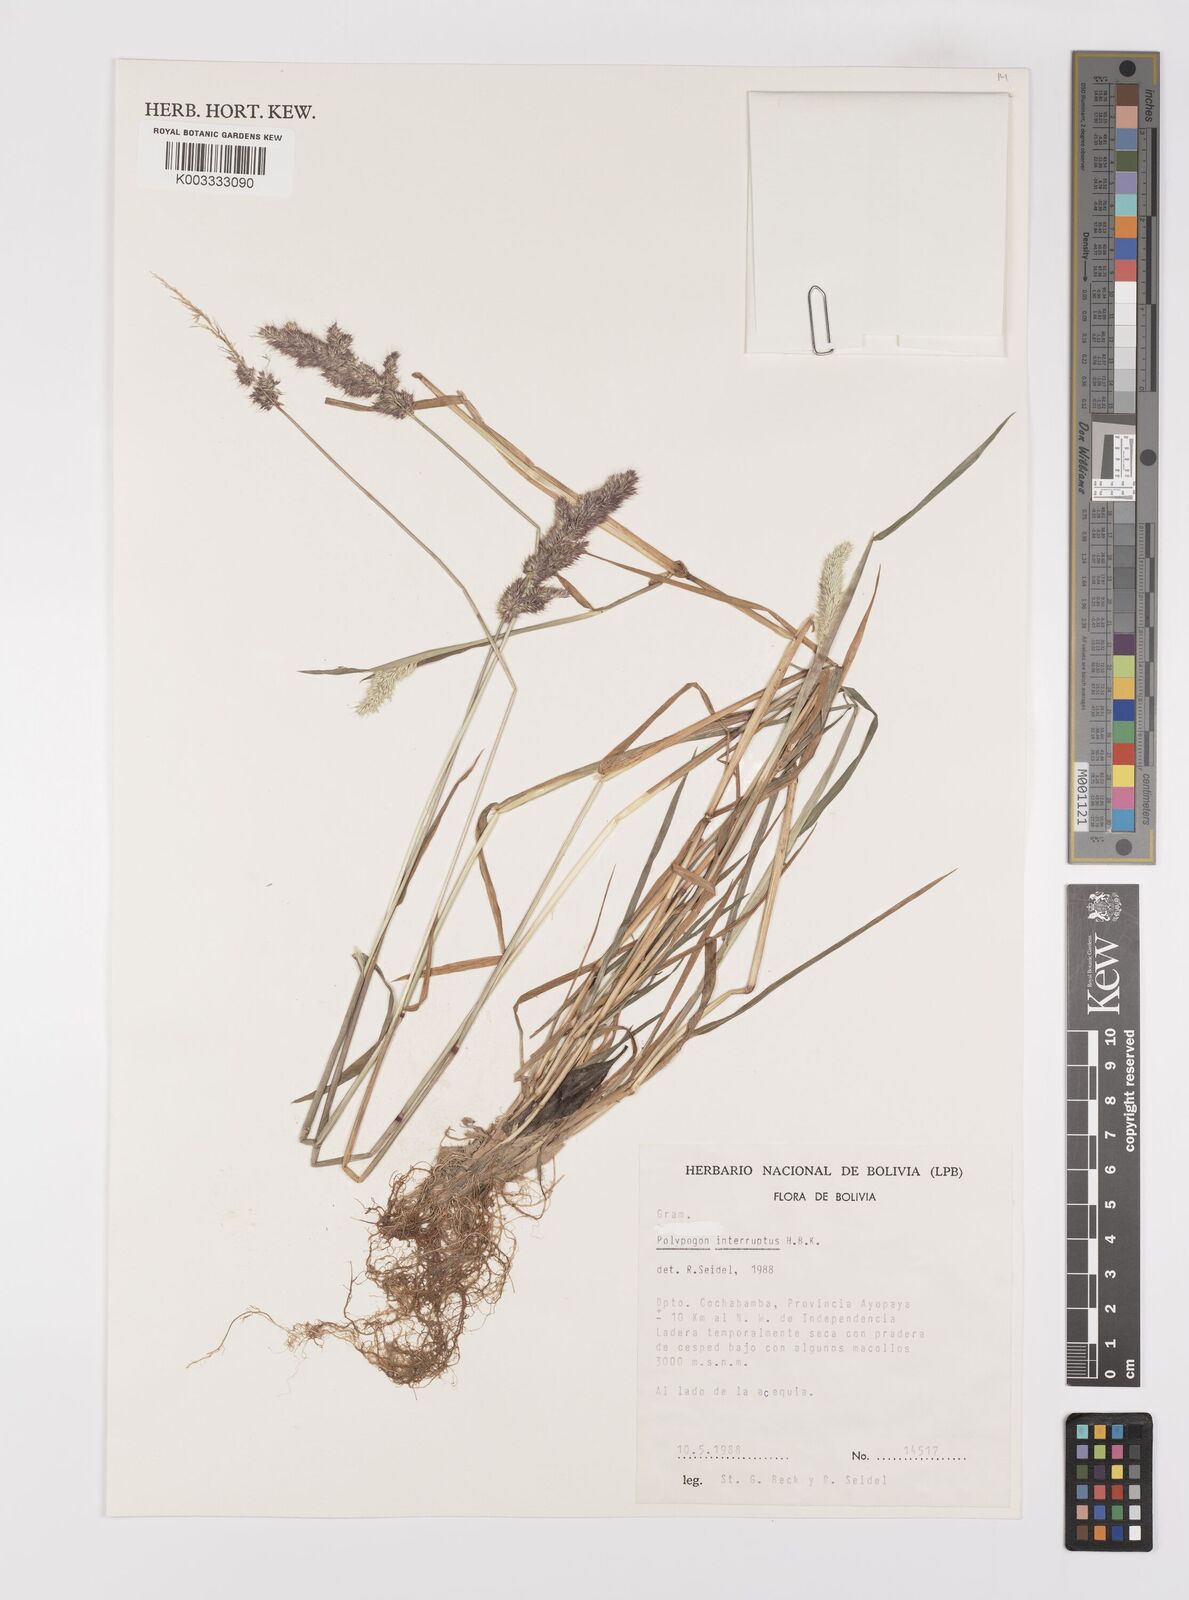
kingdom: Plantae
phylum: Tracheophyta
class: Liliopsida
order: Poales
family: Poaceae
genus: Polypogon
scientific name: Polypogon interruptus
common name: Ditch polypogon
